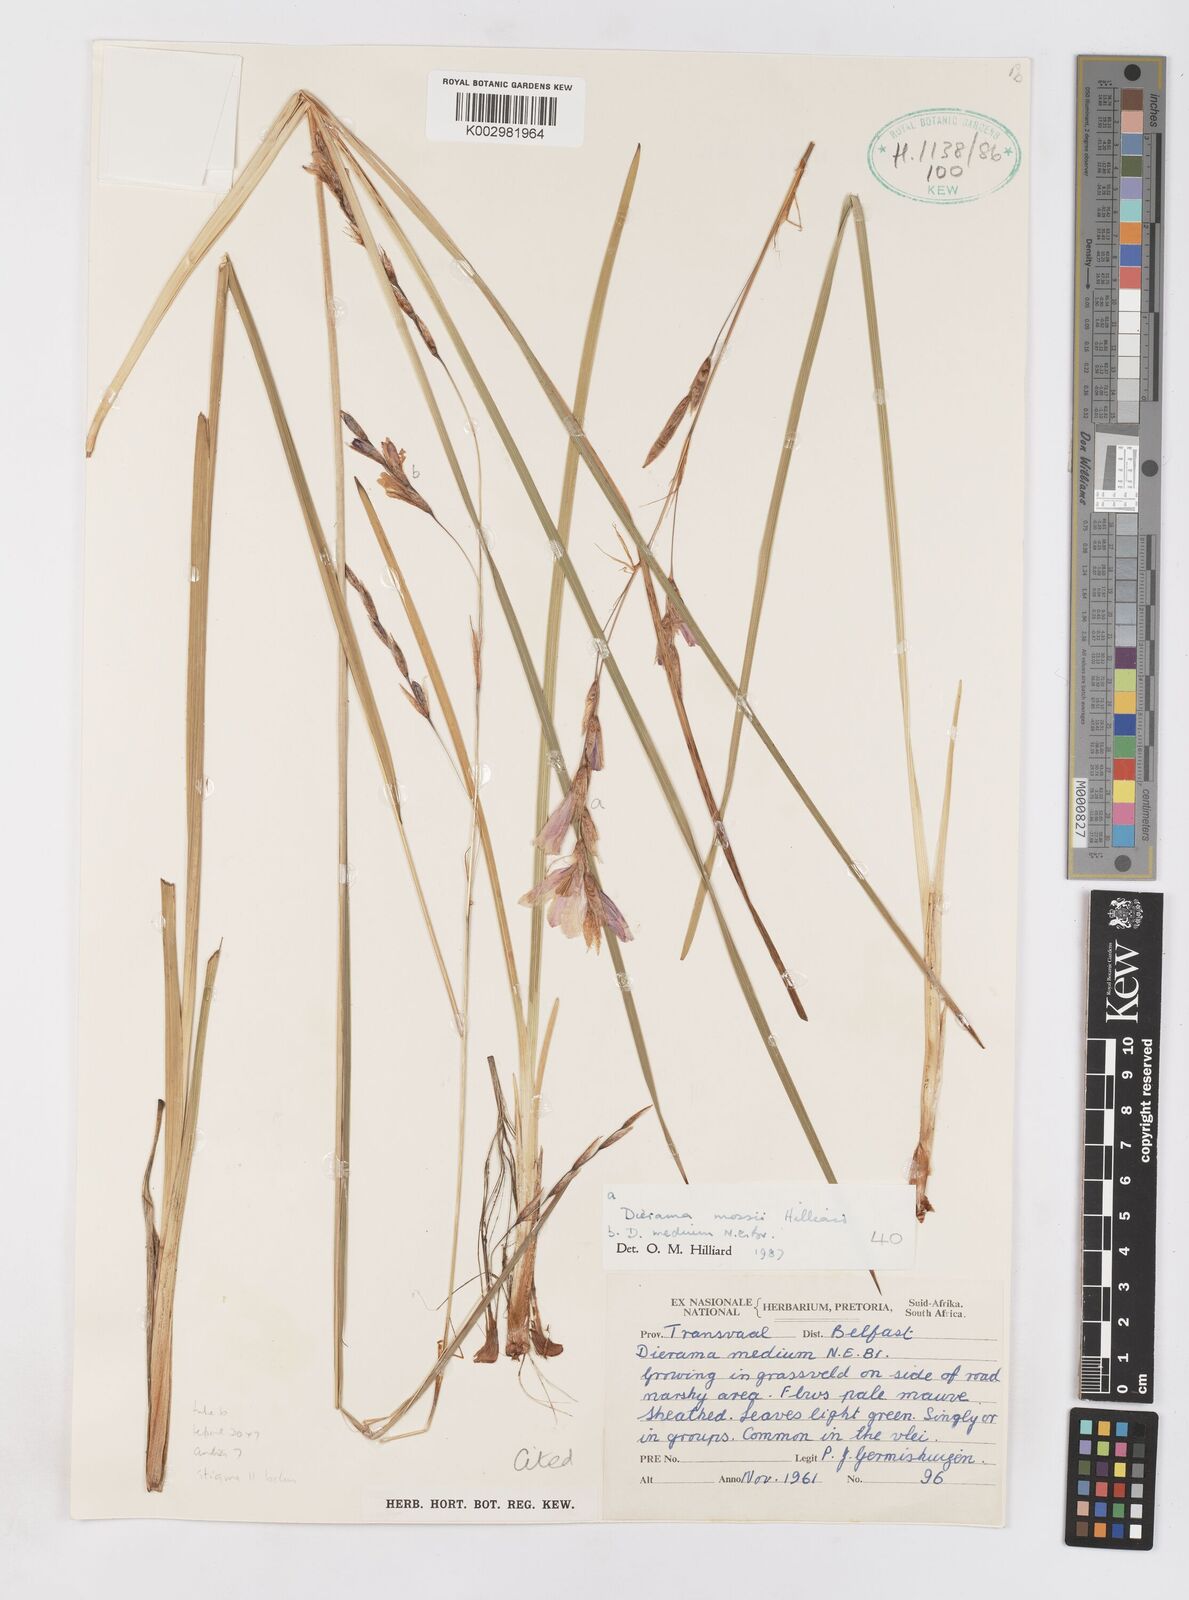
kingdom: Plantae
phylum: Tracheophyta
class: Liliopsida
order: Asparagales
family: Iridaceae
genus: Dierama
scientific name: Dierama medium
